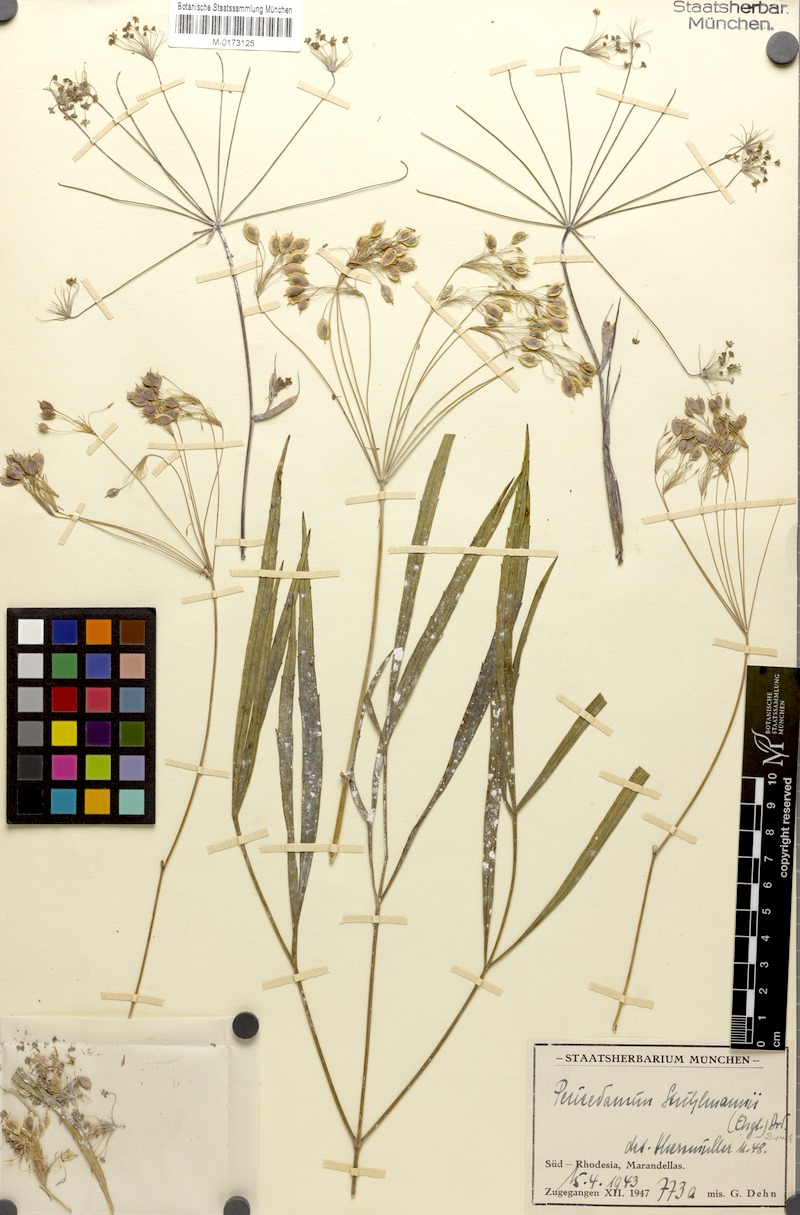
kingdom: Plantae
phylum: Tracheophyta
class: Magnoliopsida
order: Apiales
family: Apiaceae
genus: Lefebvrea
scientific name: Lefebvrea abyssinica
